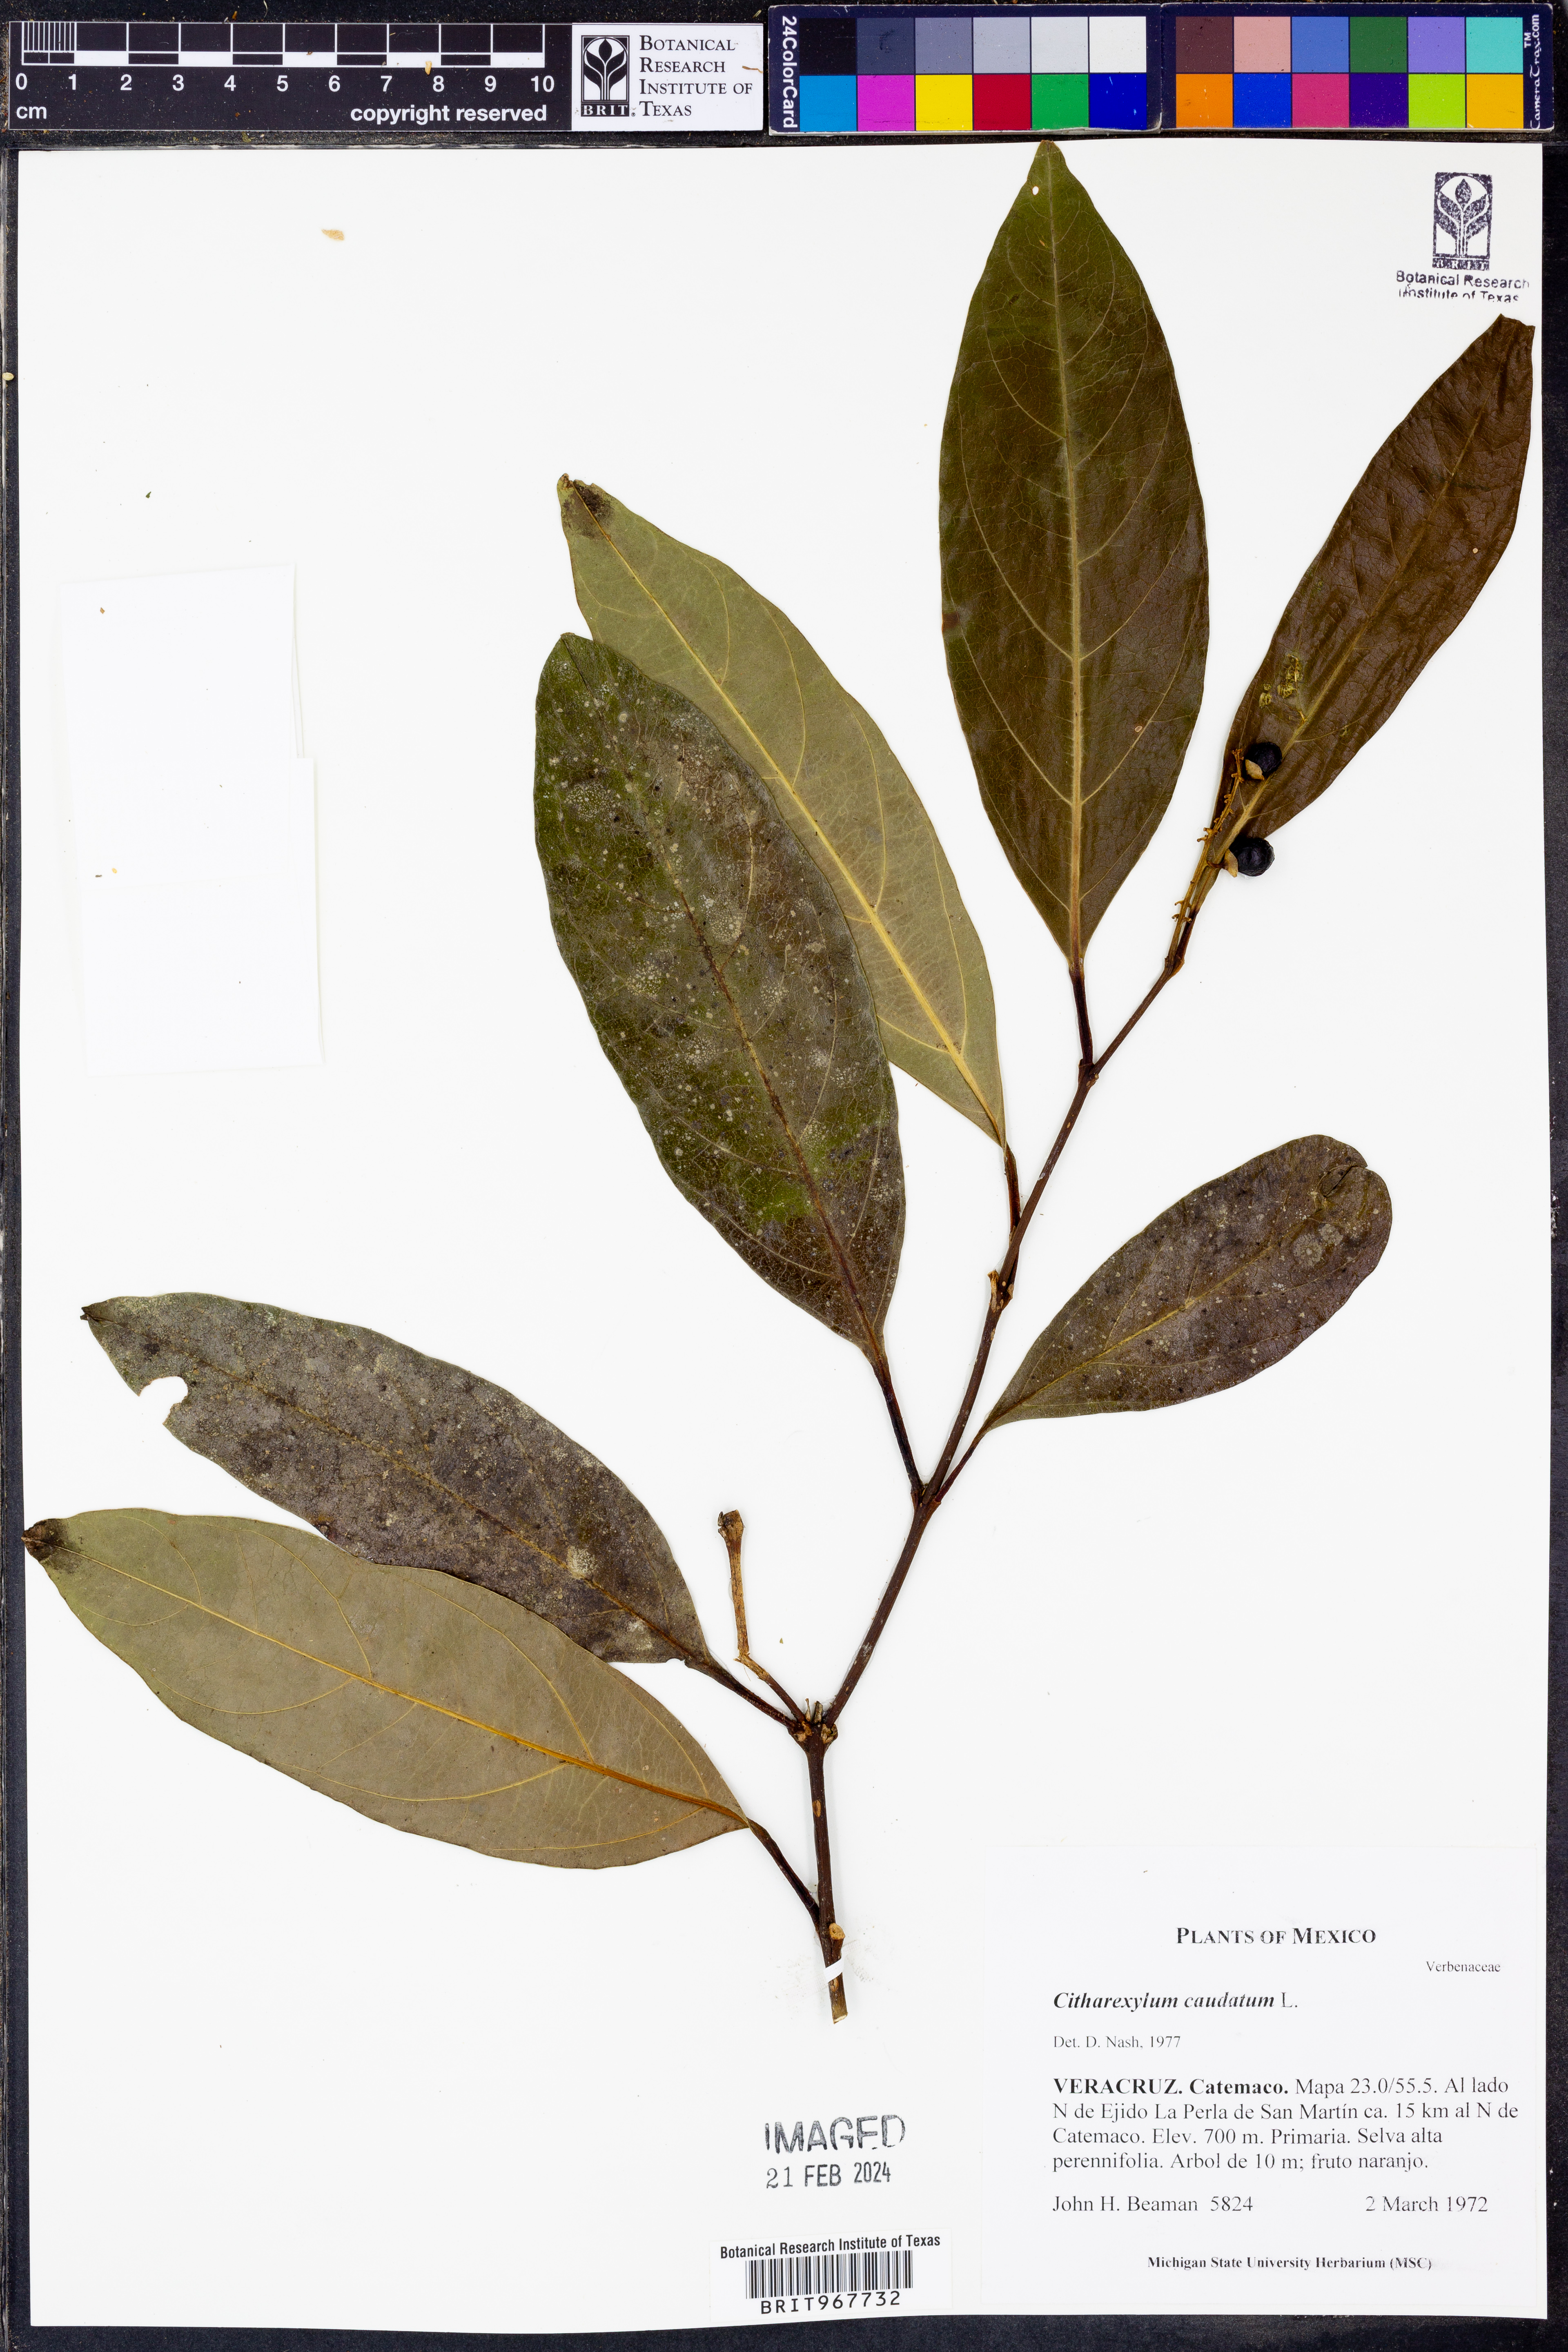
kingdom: Plantae
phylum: Tracheophyta
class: Magnoliopsida
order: Lamiales
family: Verbenaceae
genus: Citharexylum
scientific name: Citharexylum
